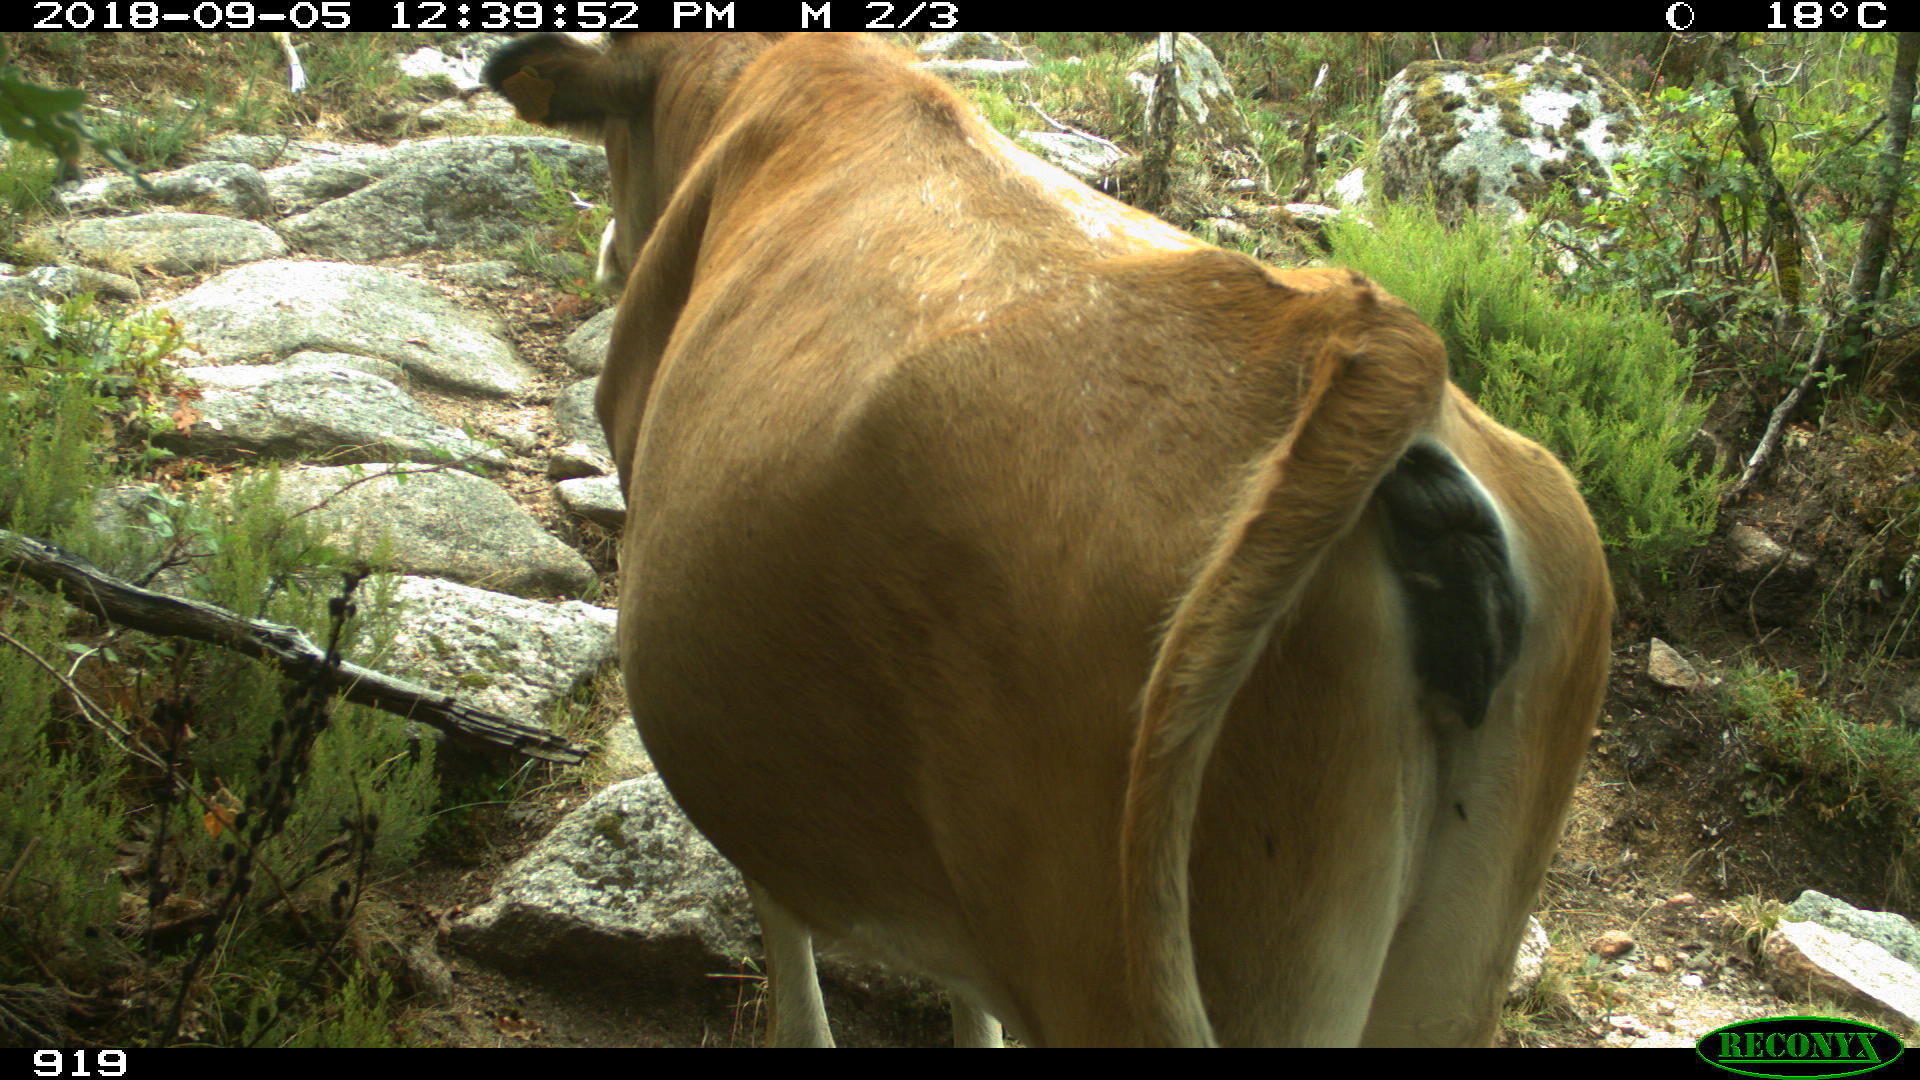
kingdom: Animalia
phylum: Chordata
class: Mammalia
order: Artiodactyla
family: Bovidae
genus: Bos
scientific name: Bos taurus
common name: Domesticated cattle
